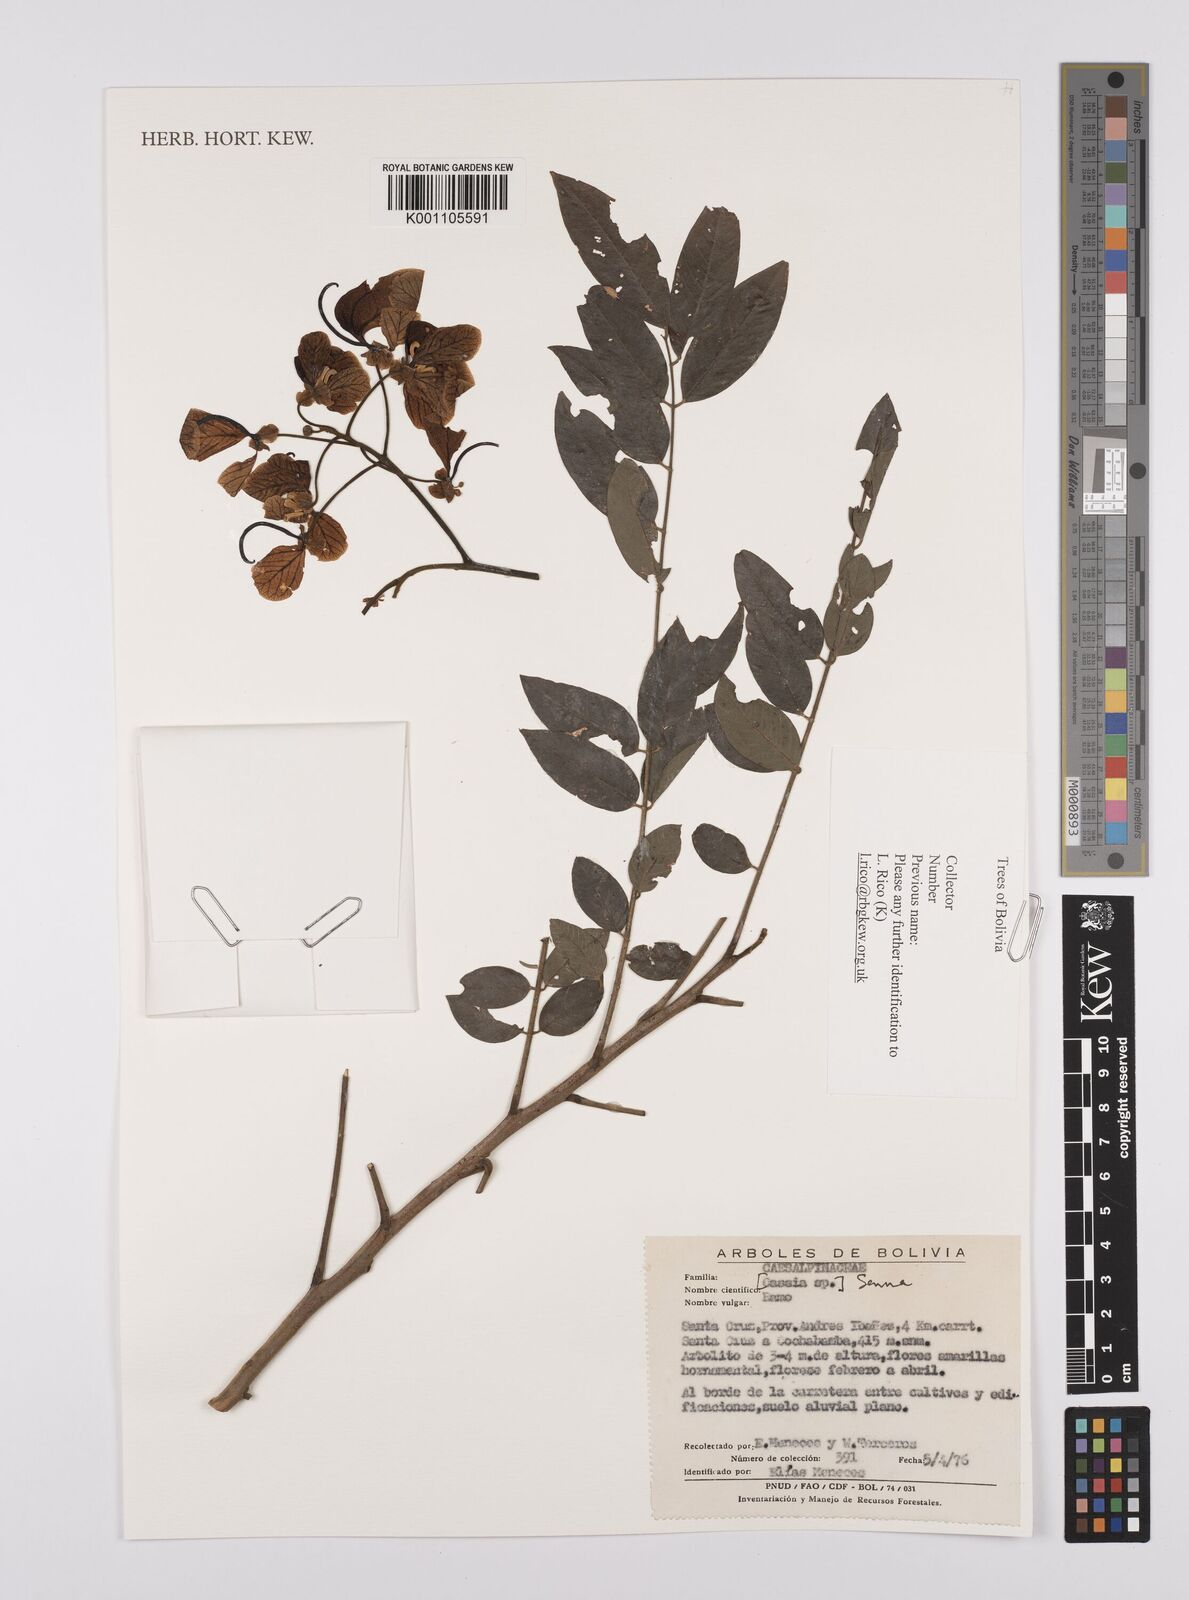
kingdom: Plantae
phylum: Tracheophyta
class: Magnoliopsida
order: Fabales
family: Fabaceae
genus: Senna
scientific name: Senna
